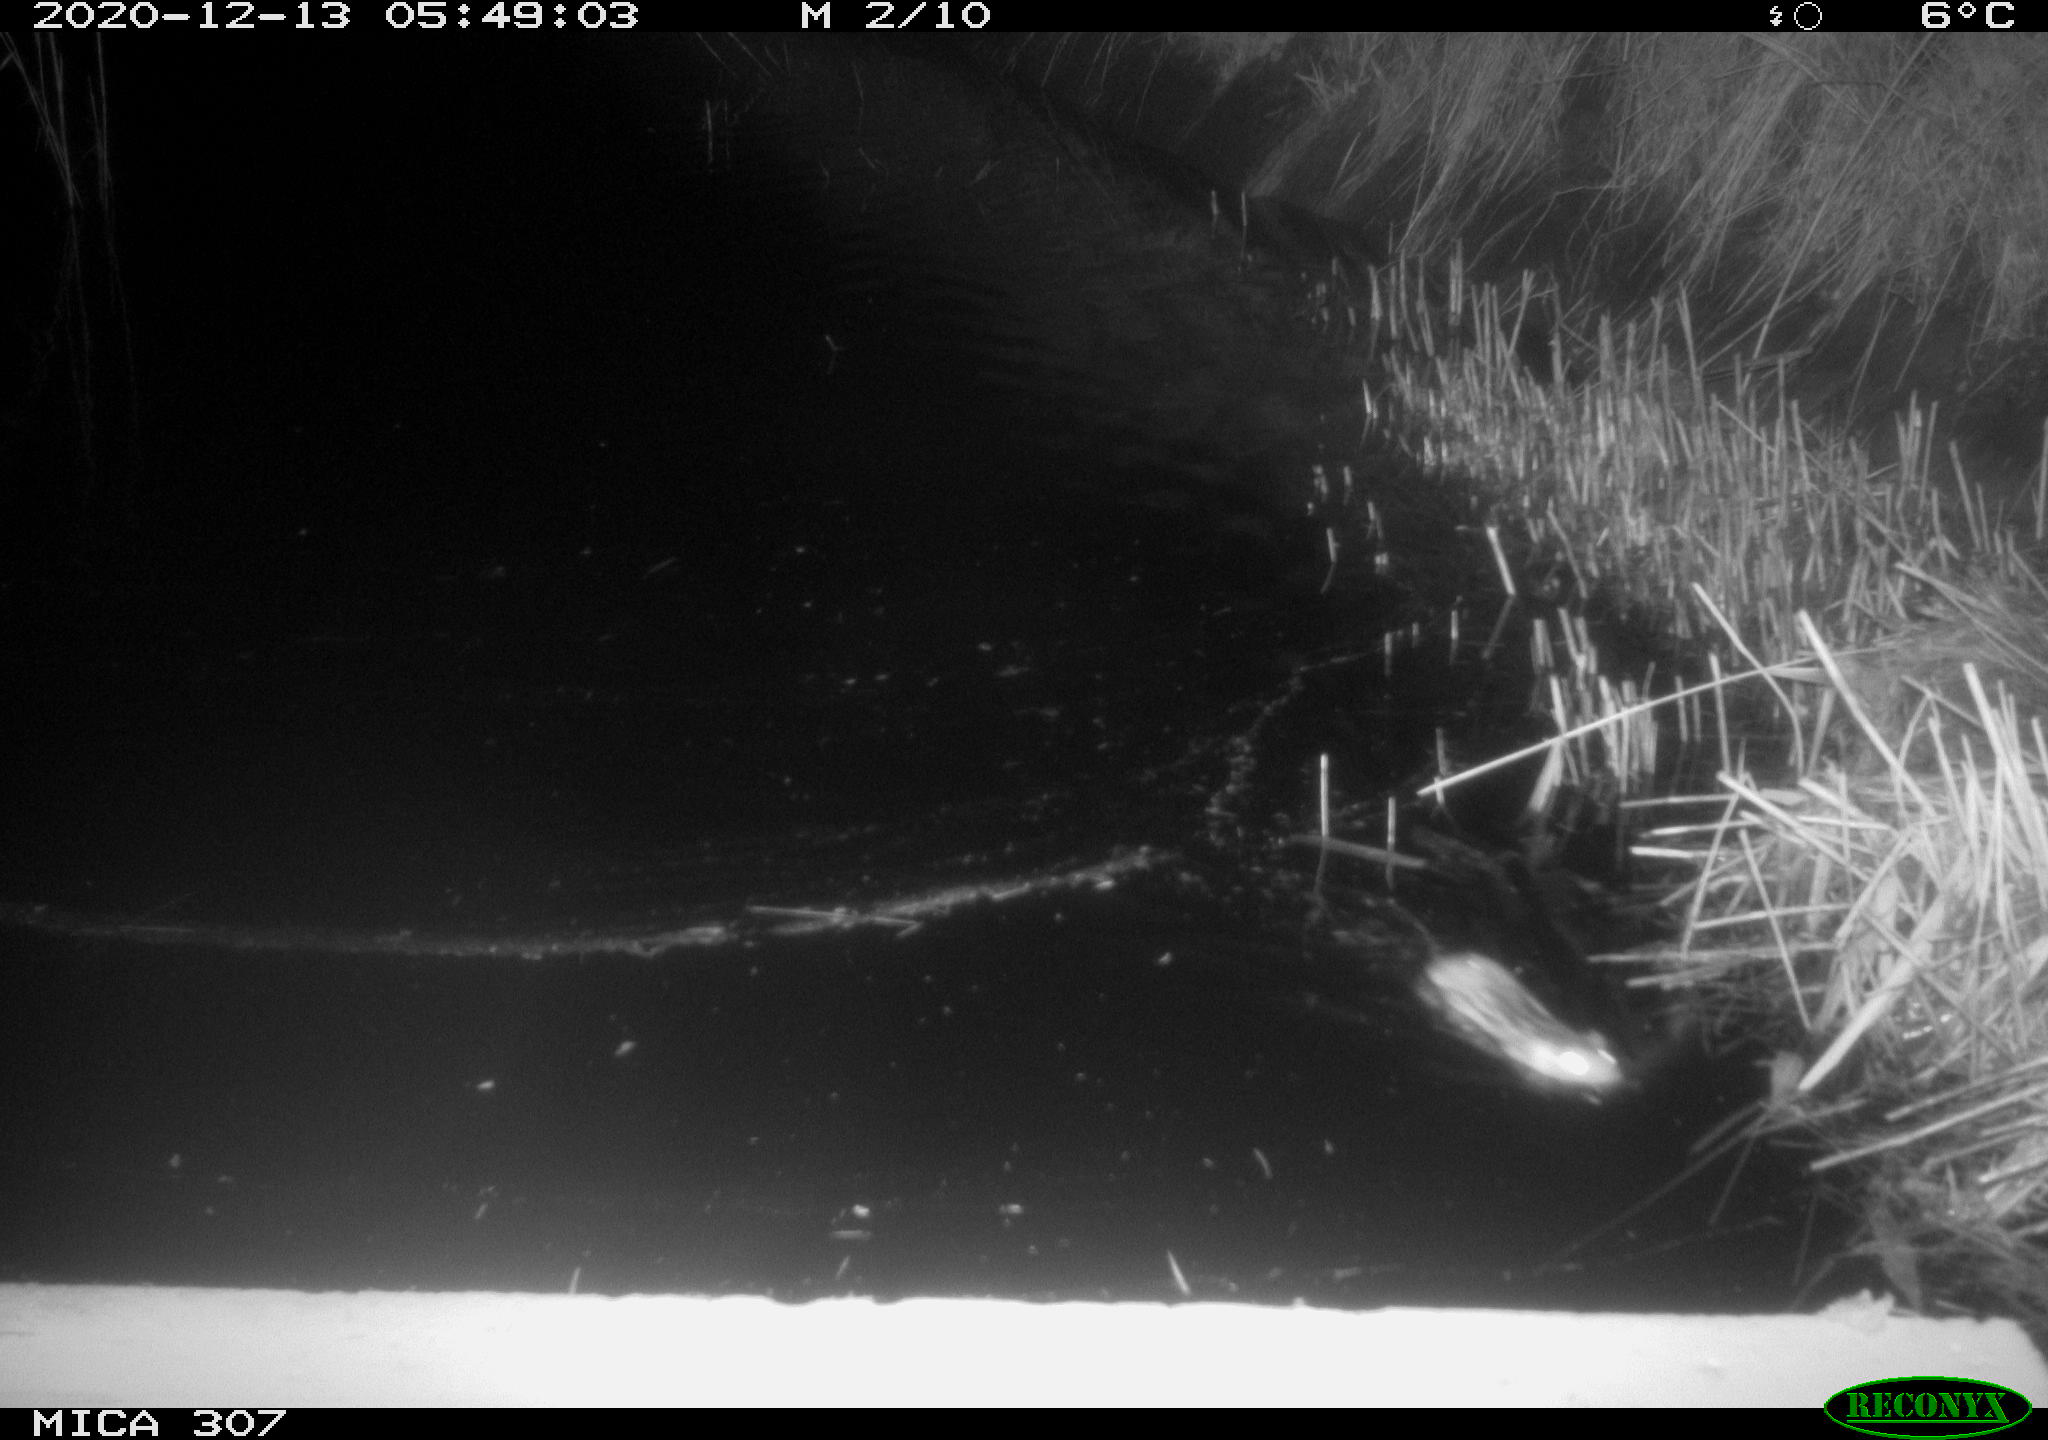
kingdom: Animalia
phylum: Chordata
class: Mammalia
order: Rodentia
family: Cricetidae
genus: Ondatra
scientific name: Ondatra zibethicus
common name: Muskrat
